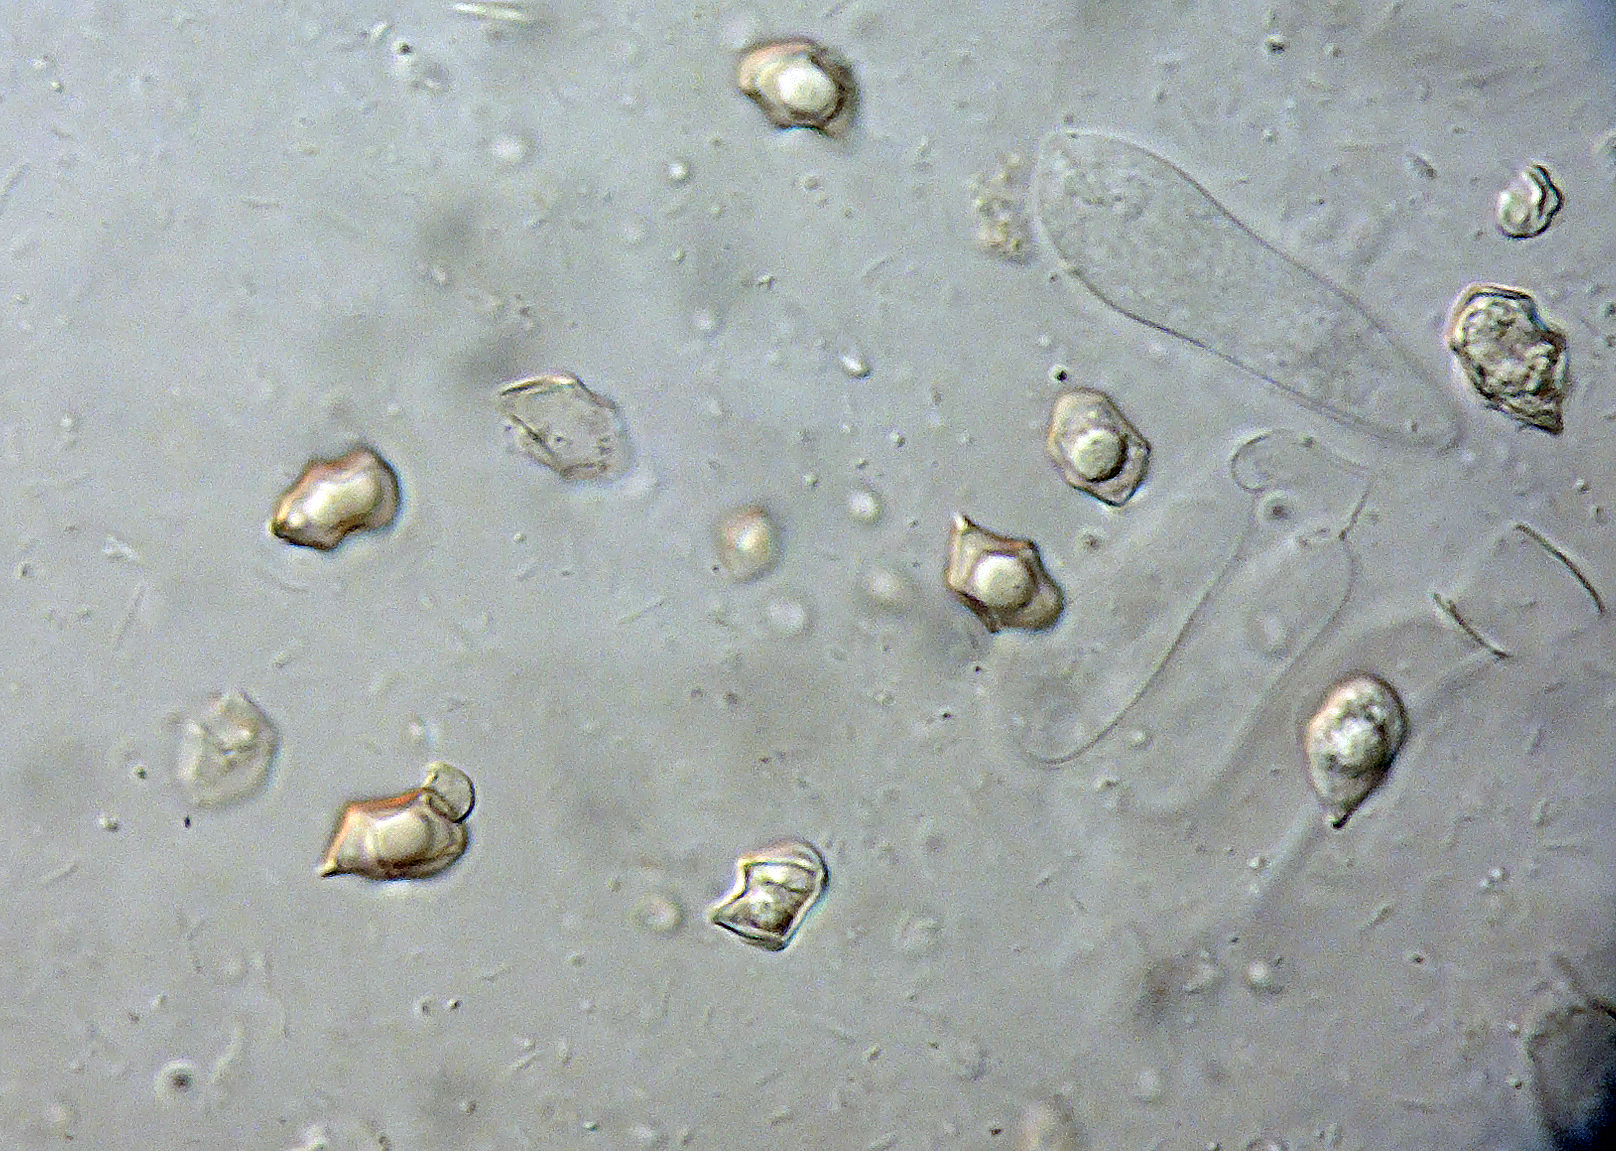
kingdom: Fungi
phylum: Basidiomycota
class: Agaricomycetes
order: Agaricales
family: Entolomataceae
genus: Entoloma
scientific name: Entoloma
